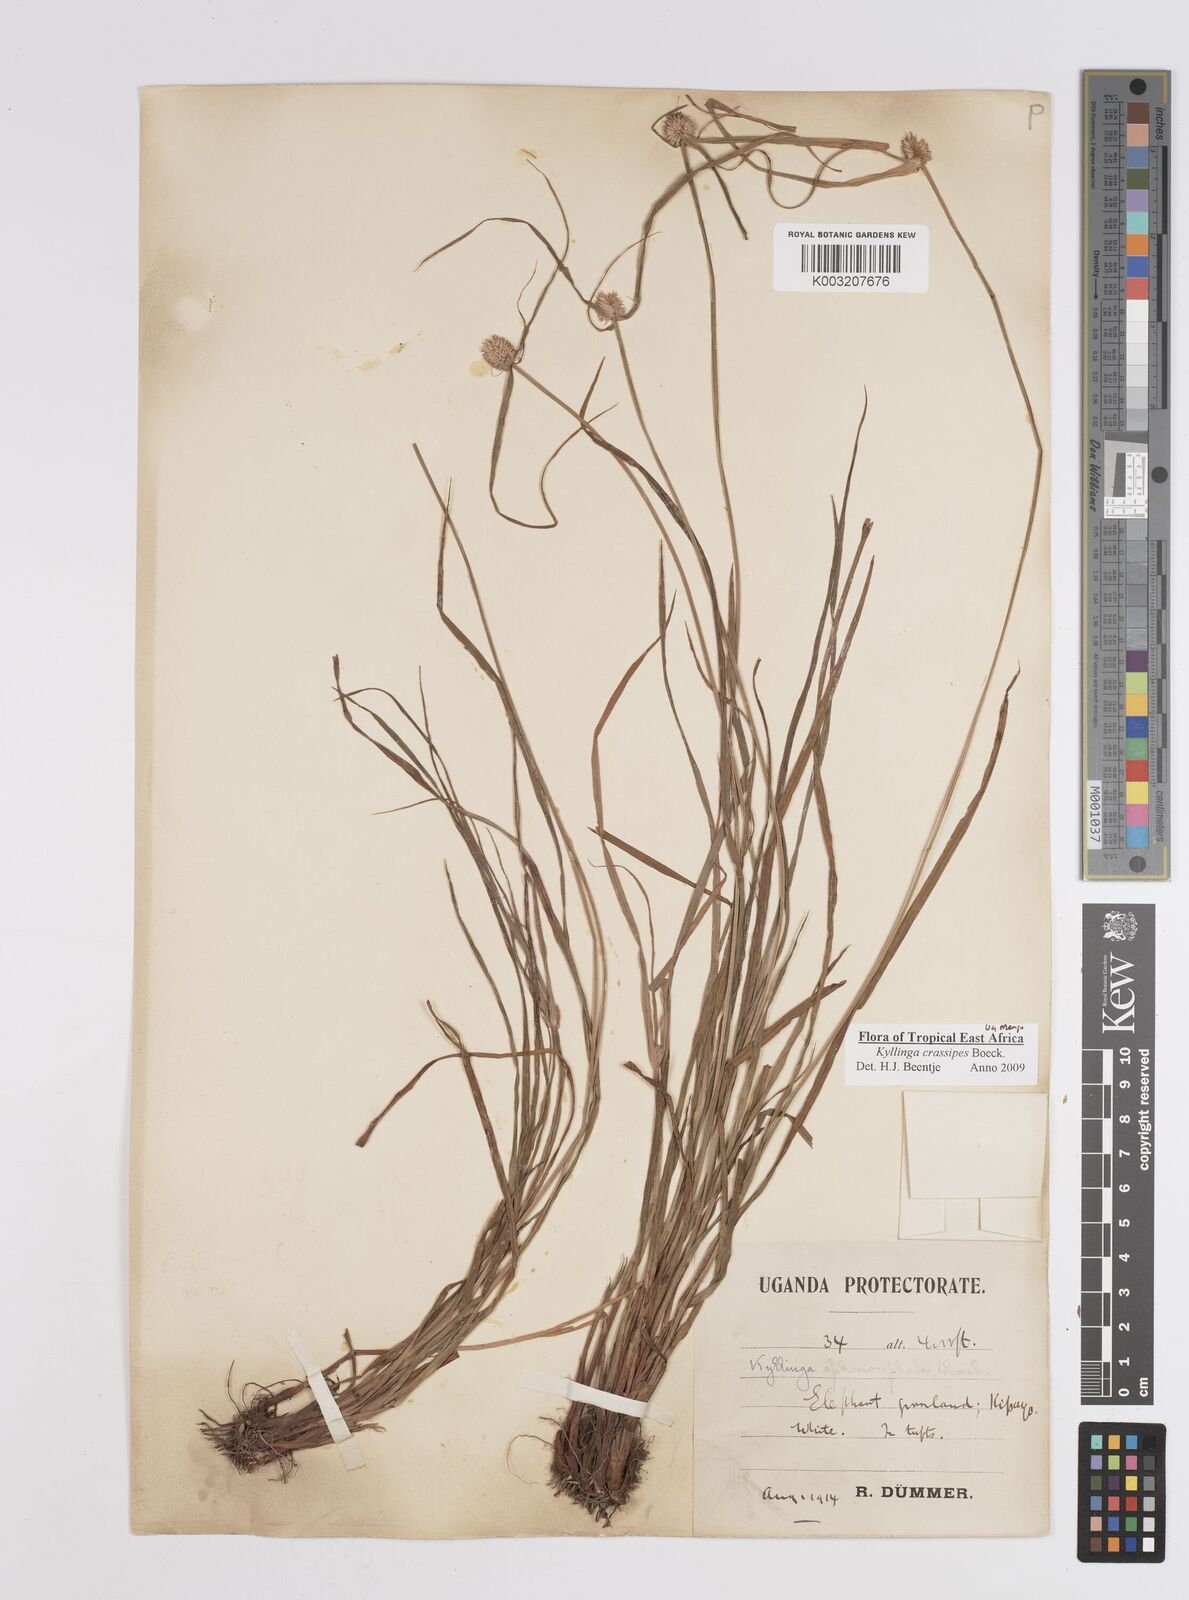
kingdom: Plantae
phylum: Tracheophyta
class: Liliopsida
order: Poales
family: Cyperaceae
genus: Cyperus
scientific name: Cyperus crassipes
